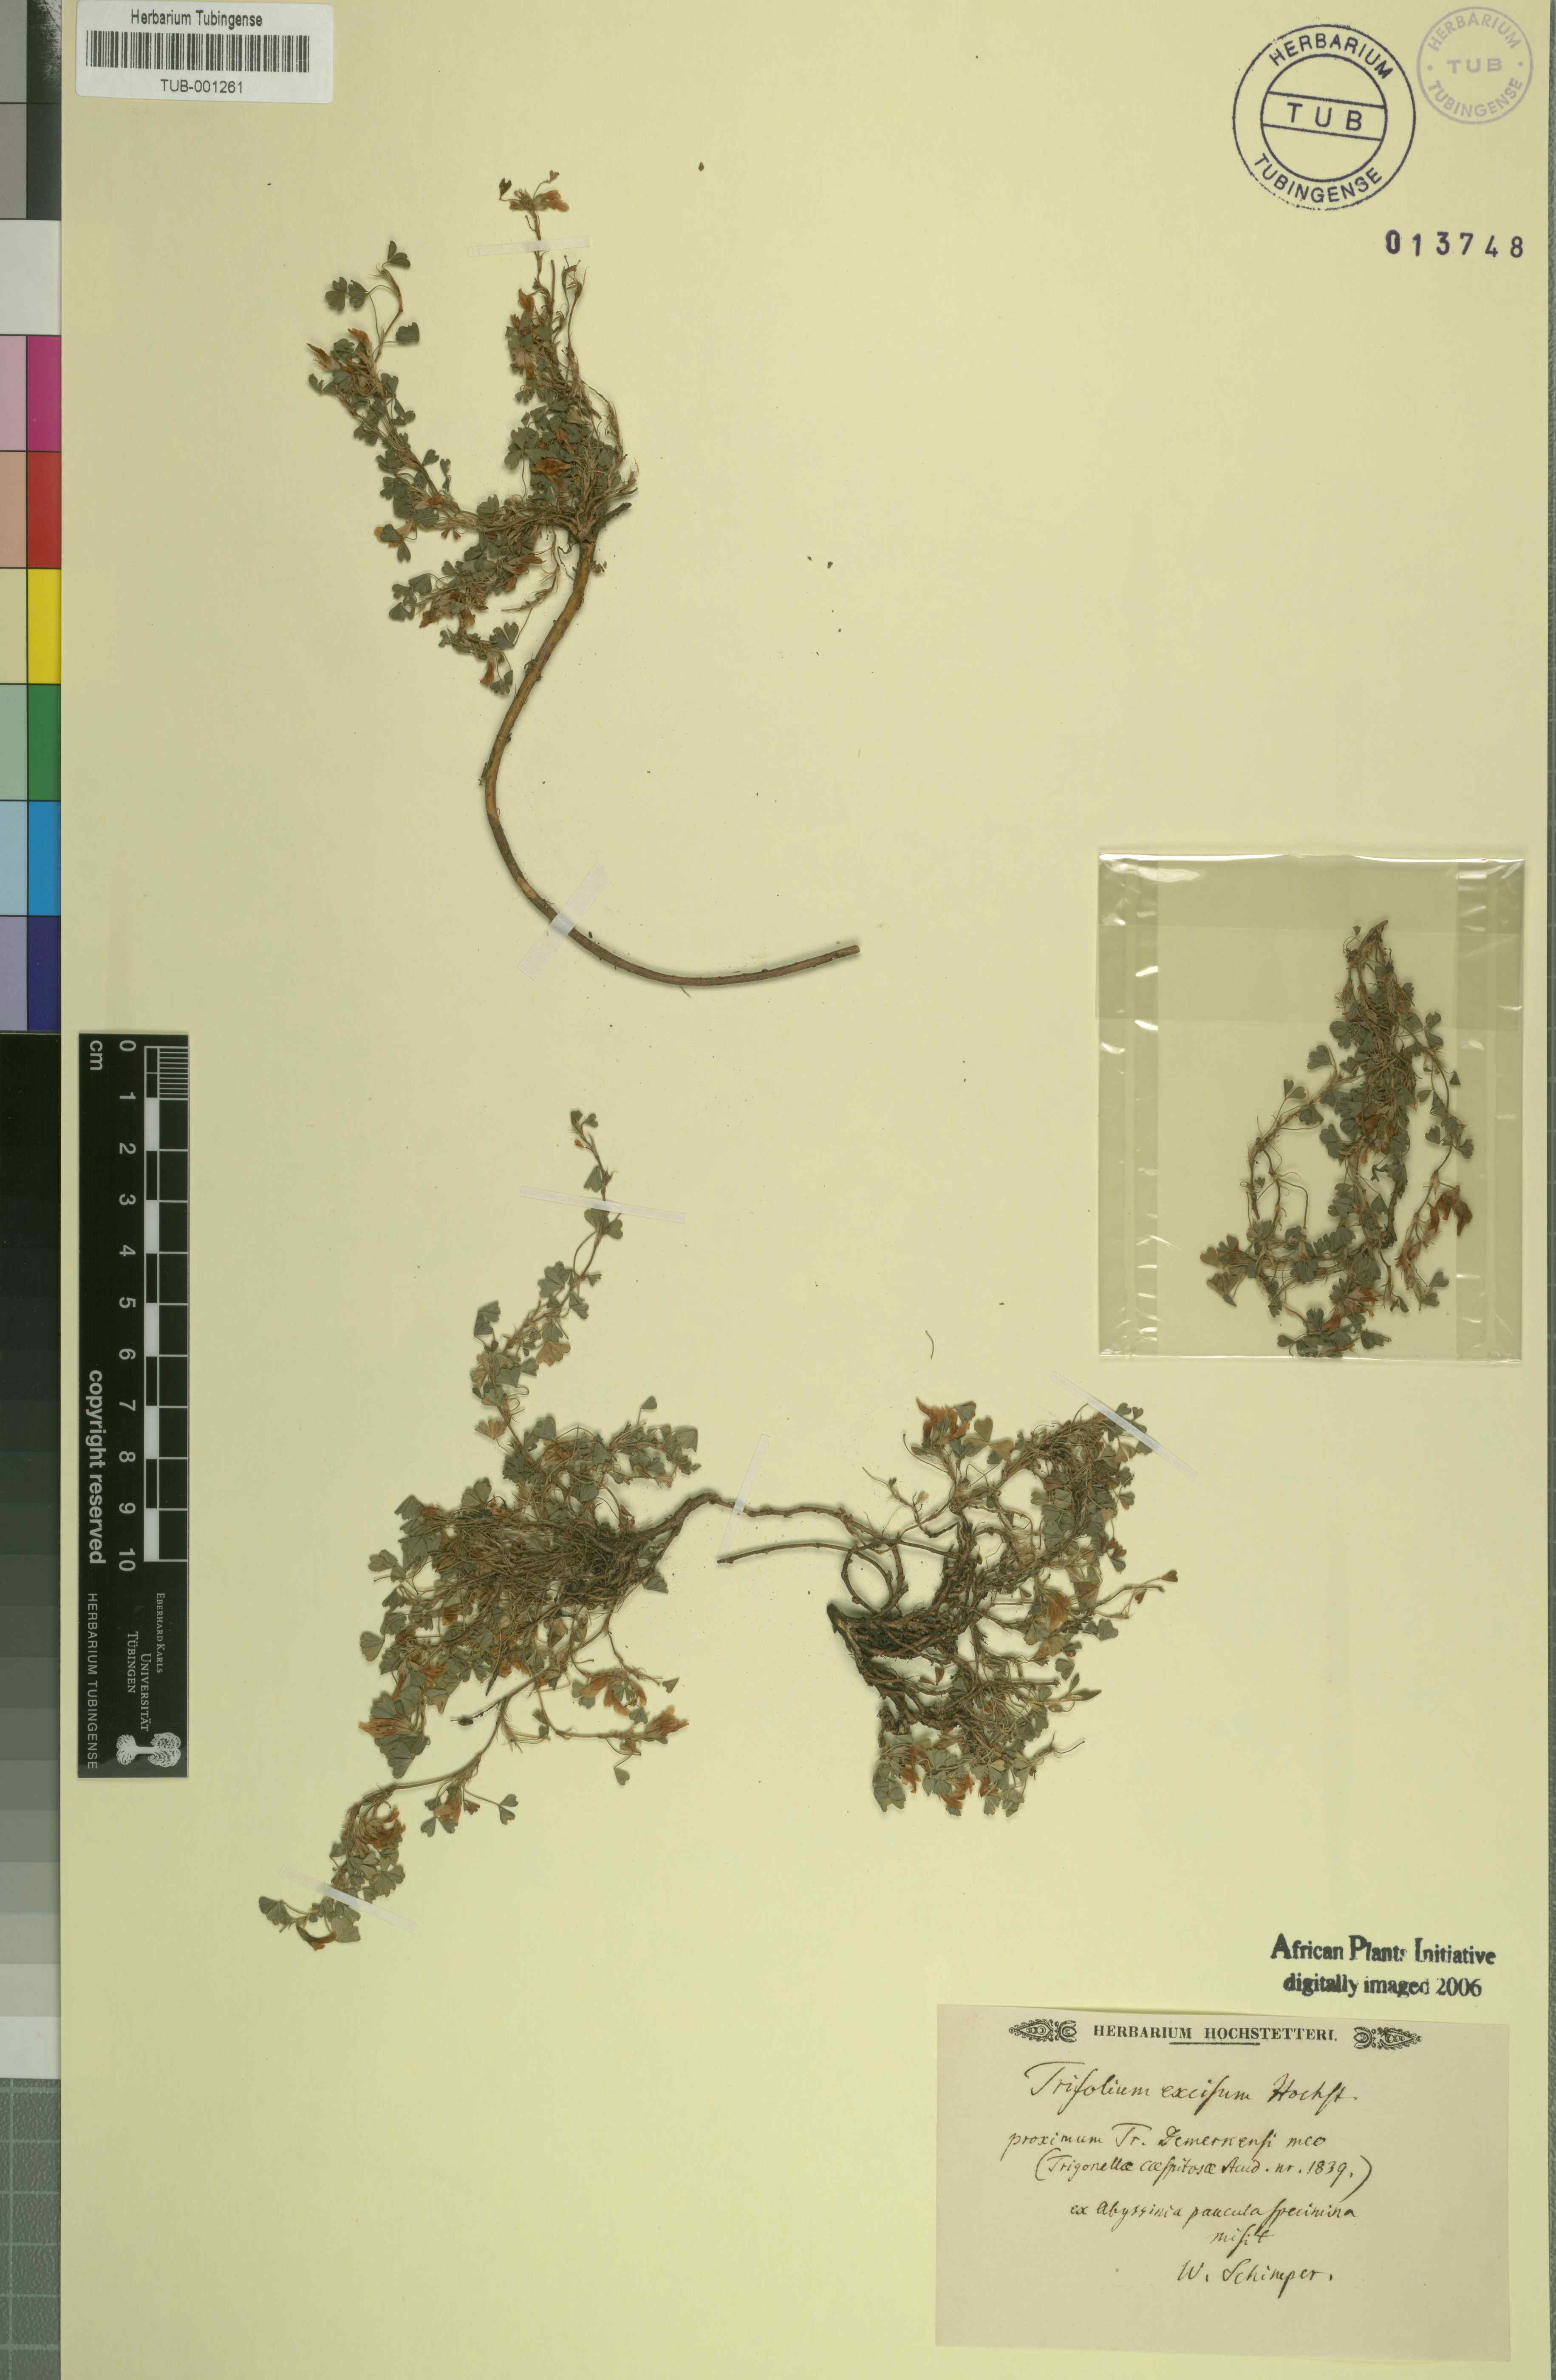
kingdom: Plantae
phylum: Tracheophyta
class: Magnoliopsida
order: Fabales
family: Fabaceae
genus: Trifolium
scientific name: Trifolium
